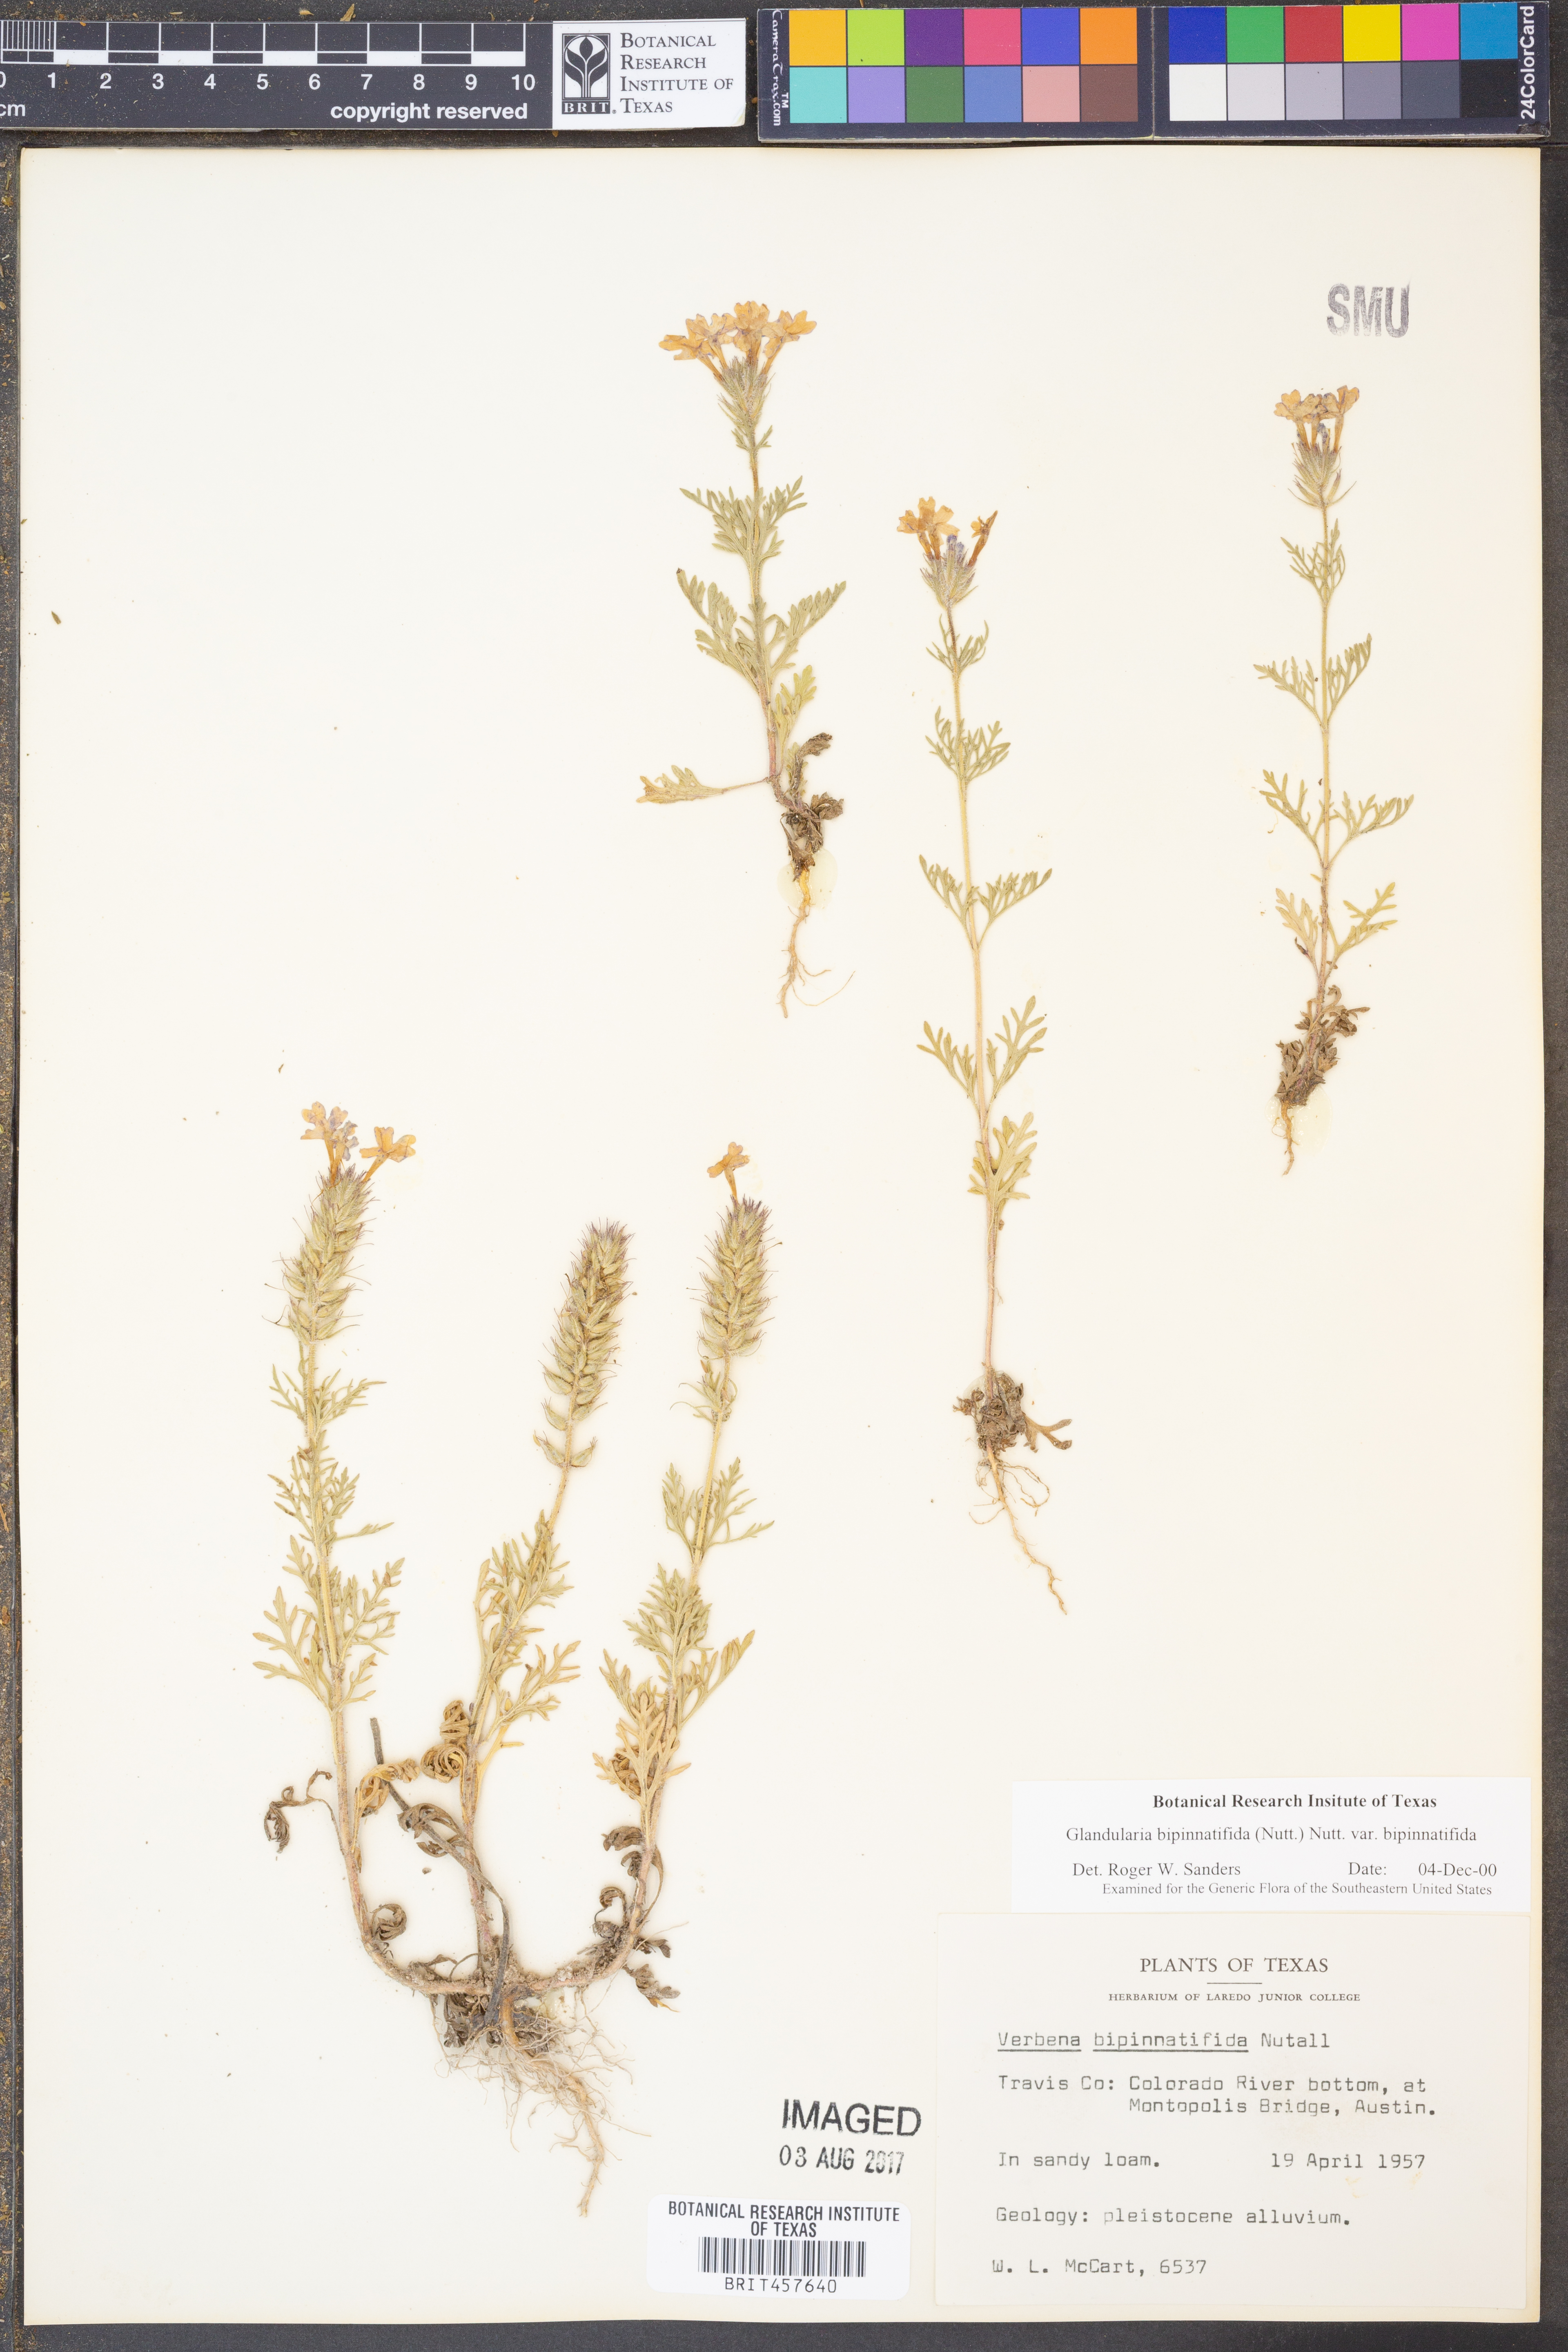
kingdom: Plantae
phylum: Tracheophyta
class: Magnoliopsida
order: Lamiales
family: Verbenaceae
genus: Verbena
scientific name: Verbena bipinnatifida
